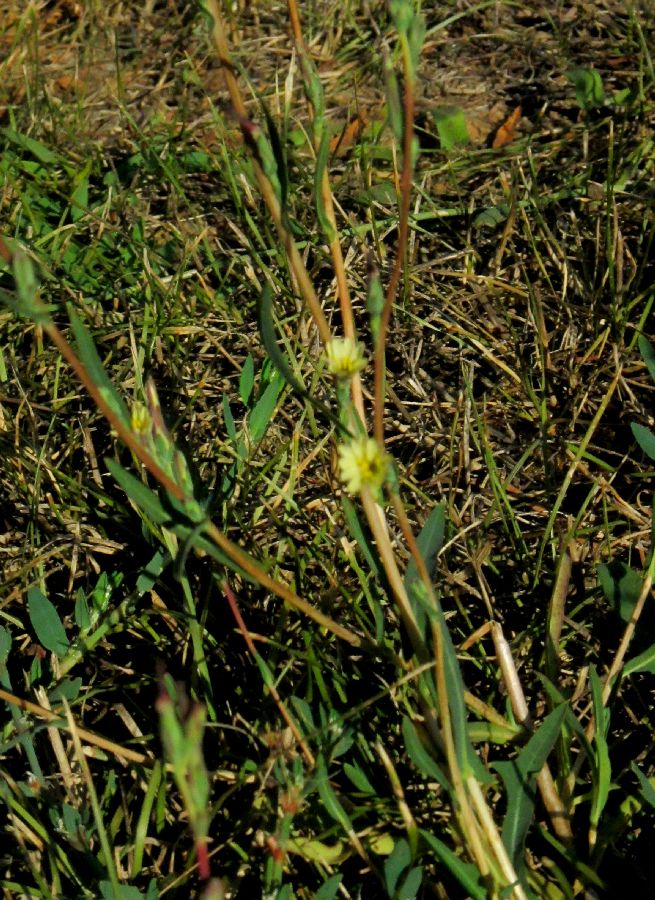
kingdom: Plantae
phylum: Tracheophyta
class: Magnoliopsida
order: Asterales
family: Asteraceae
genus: Lactuca
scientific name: Lactuca saligna
